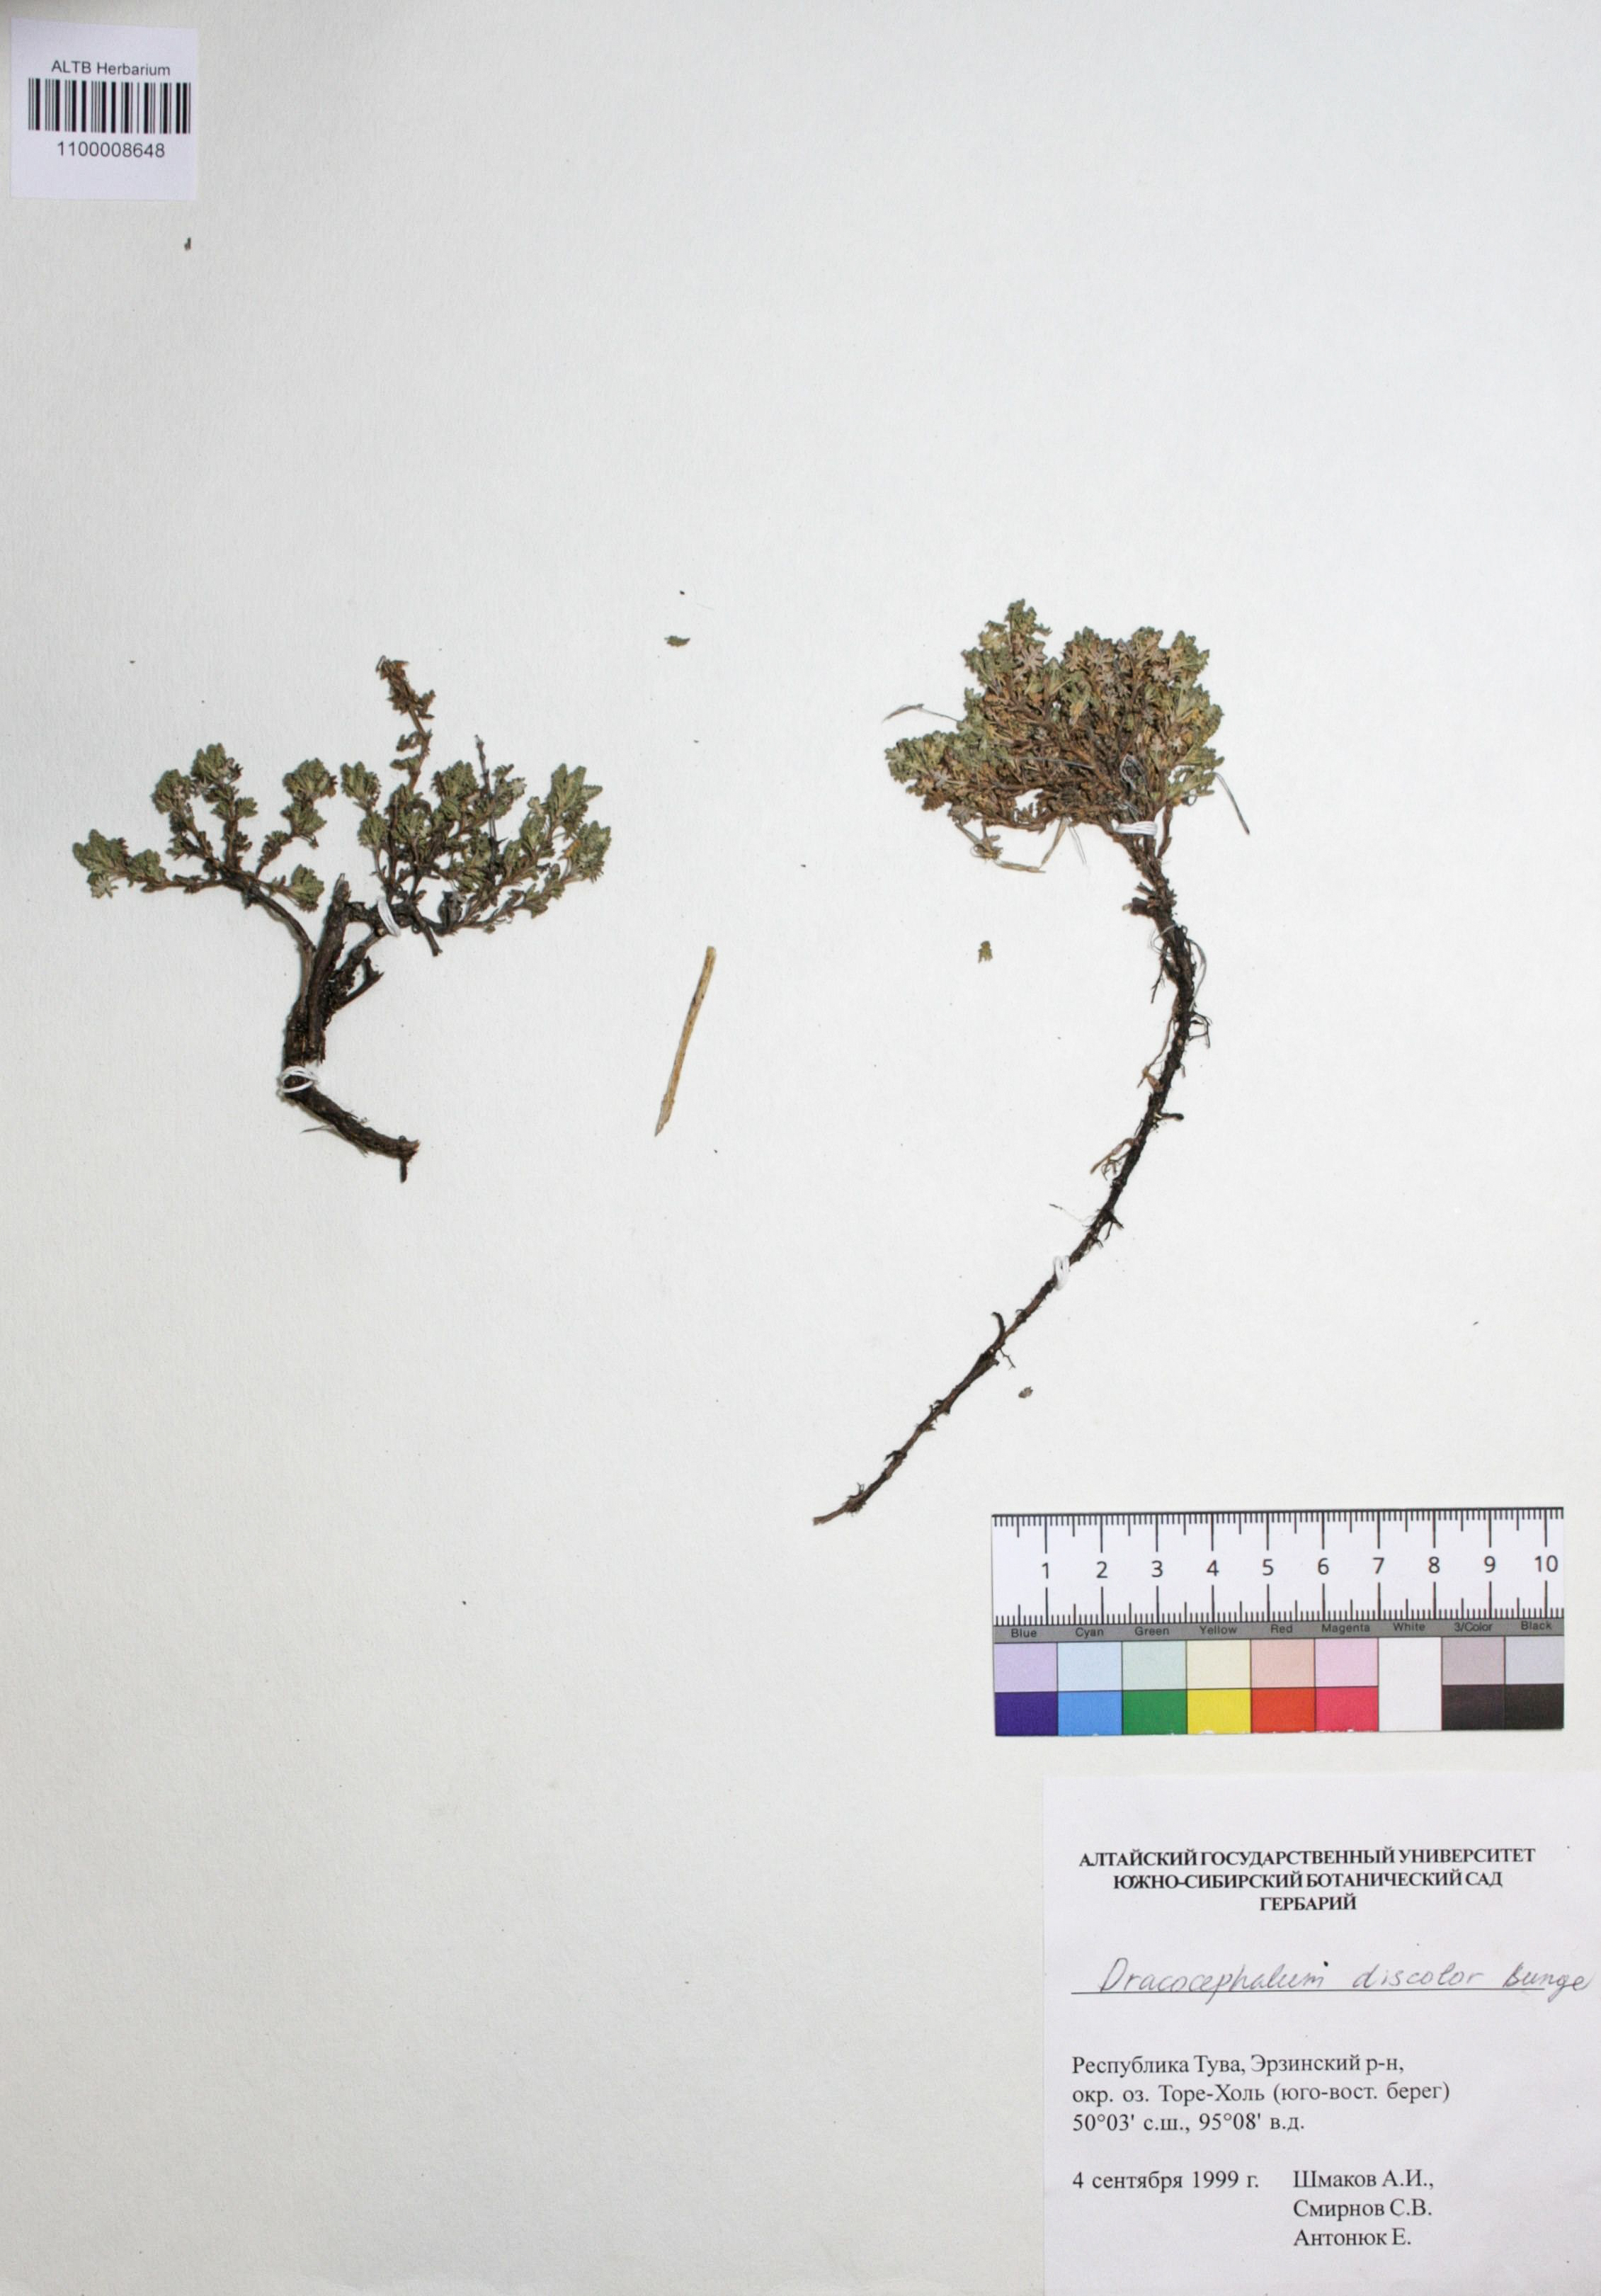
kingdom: Plantae
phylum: Tracheophyta
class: Magnoliopsida
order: Lamiales
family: Lamiaceae
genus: Dracocephalum
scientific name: Dracocephalum discolor
